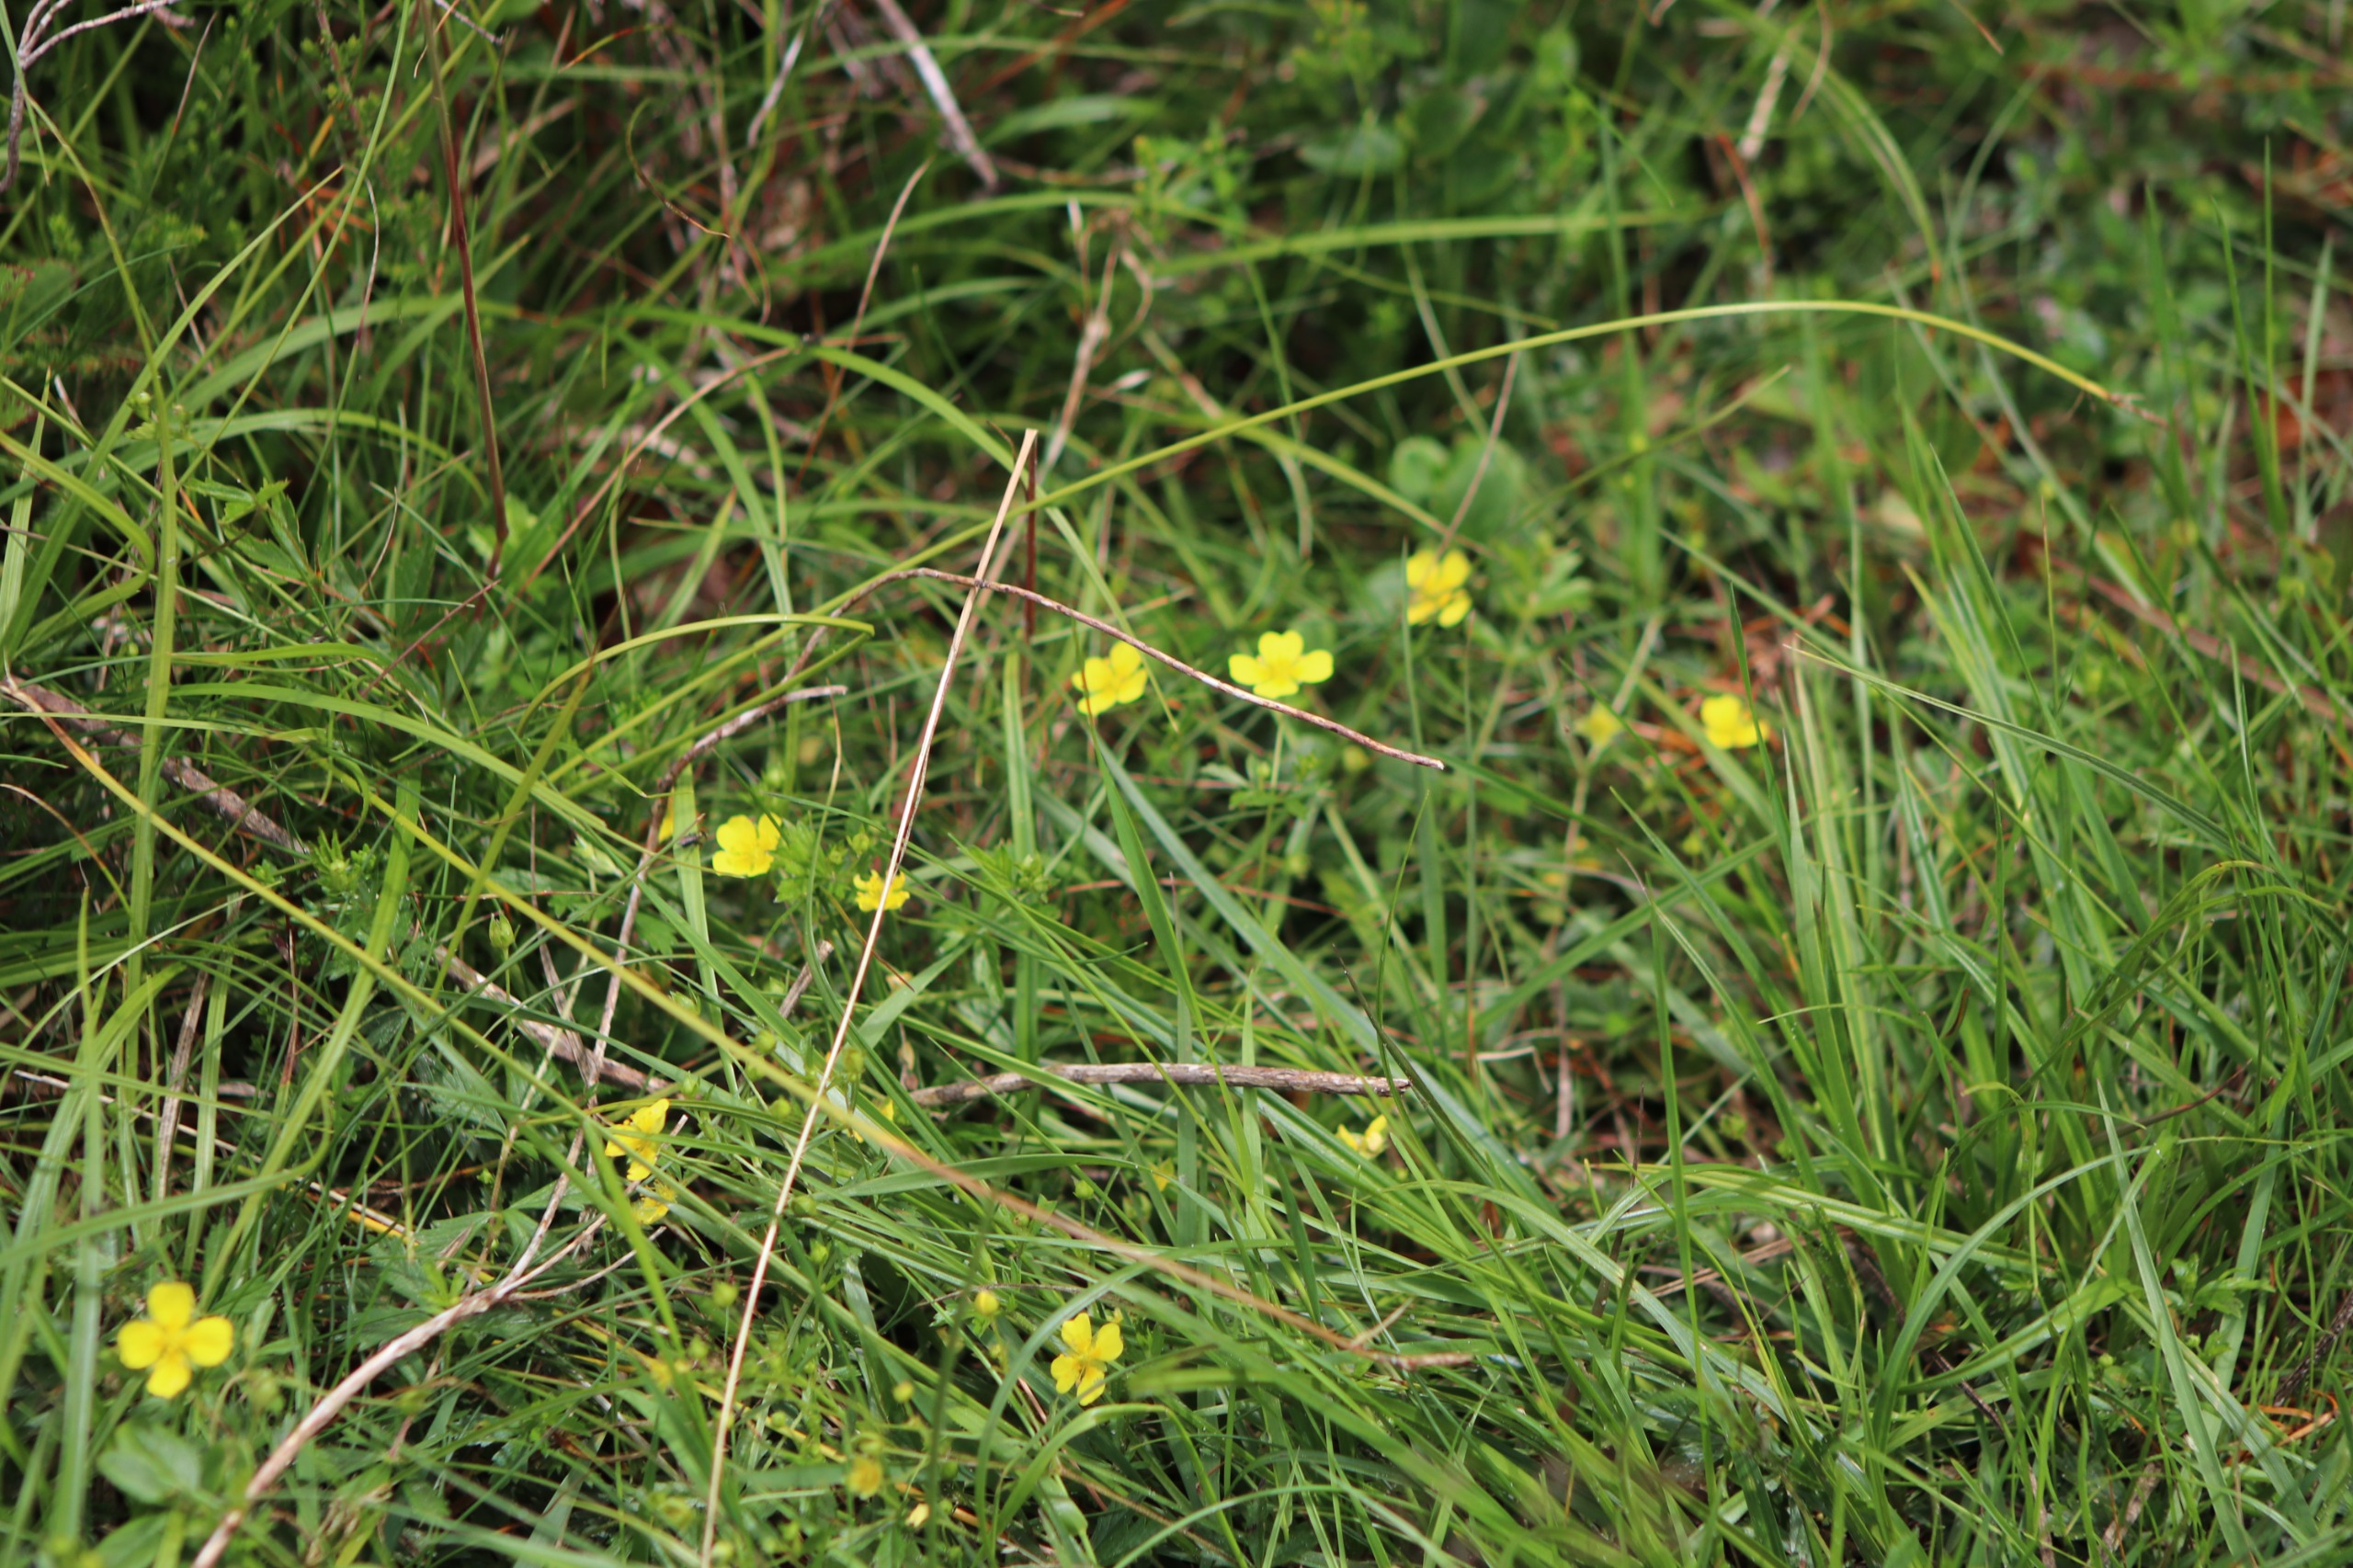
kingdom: Plantae
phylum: Tracheophyta
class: Magnoliopsida
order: Rosales
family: Rosaceae
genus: Potentilla
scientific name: Potentilla erecta
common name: Tormentil
